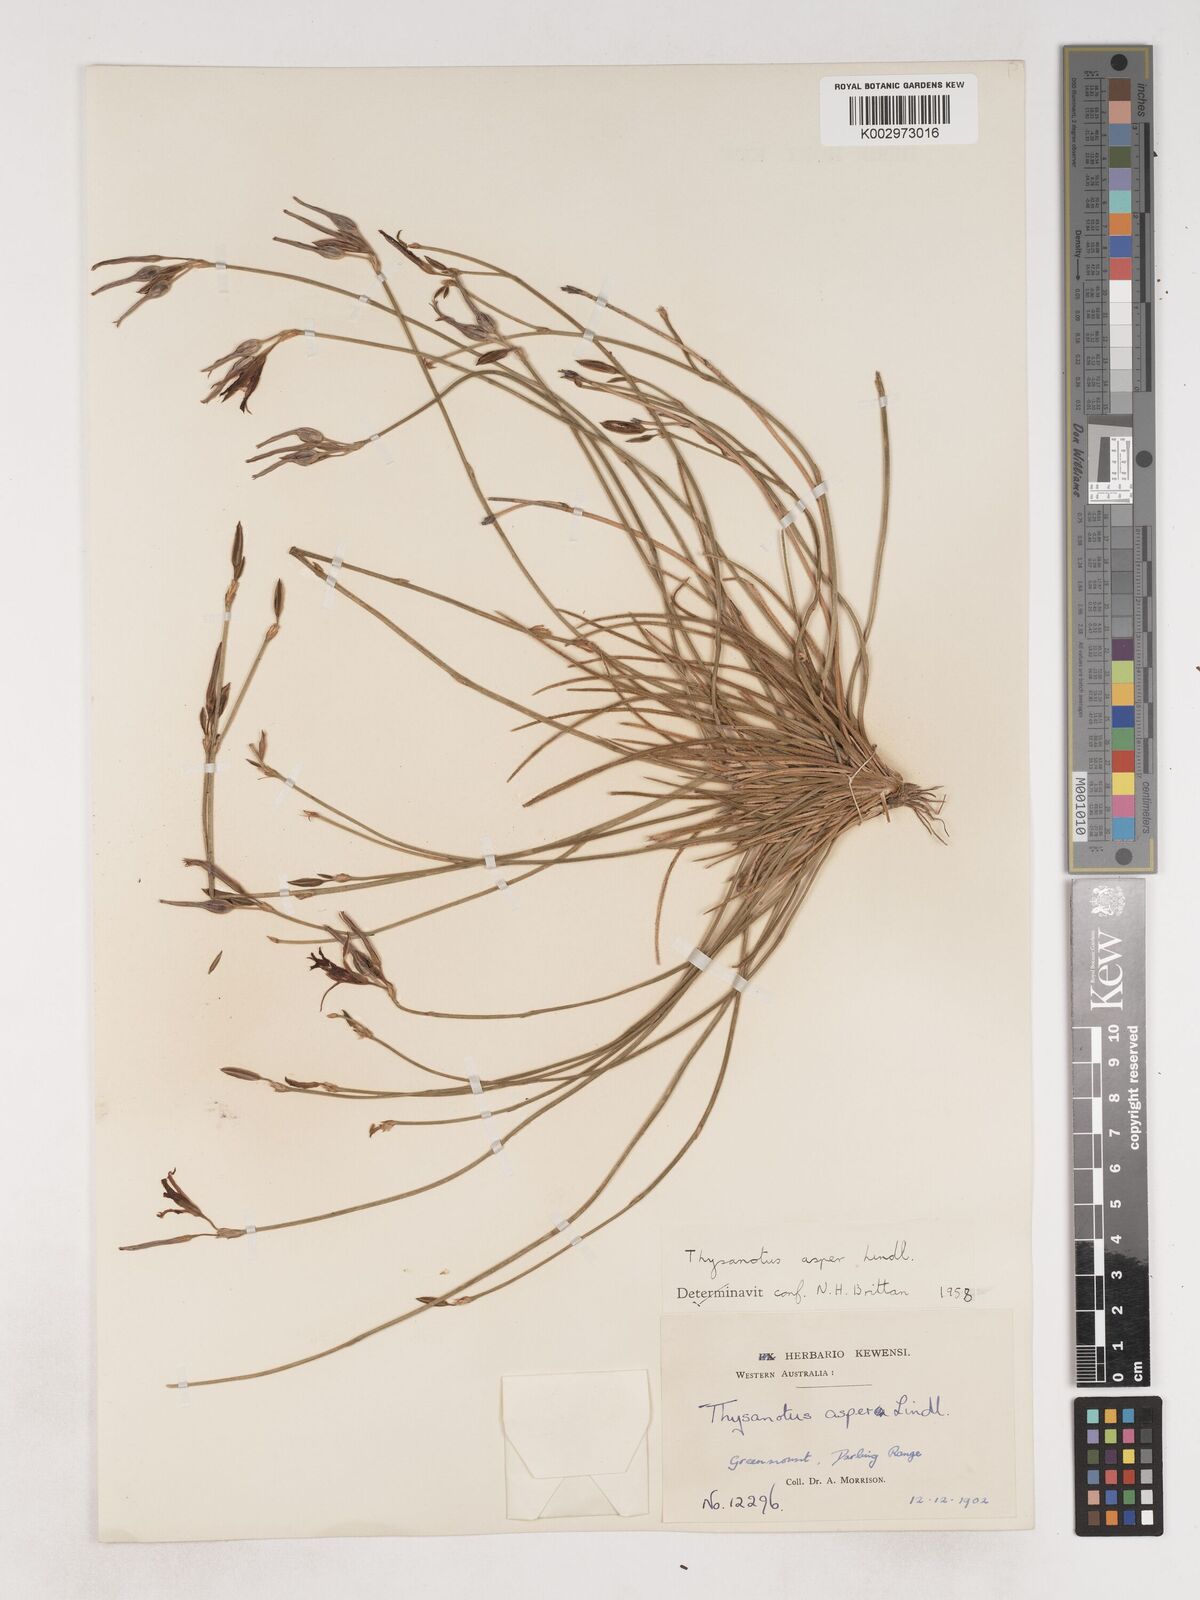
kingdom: Plantae
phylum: Tracheophyta
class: Liliopsida
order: Asparagales
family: Asparagaceae
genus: Thysanotus
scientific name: Thysanotus asper
